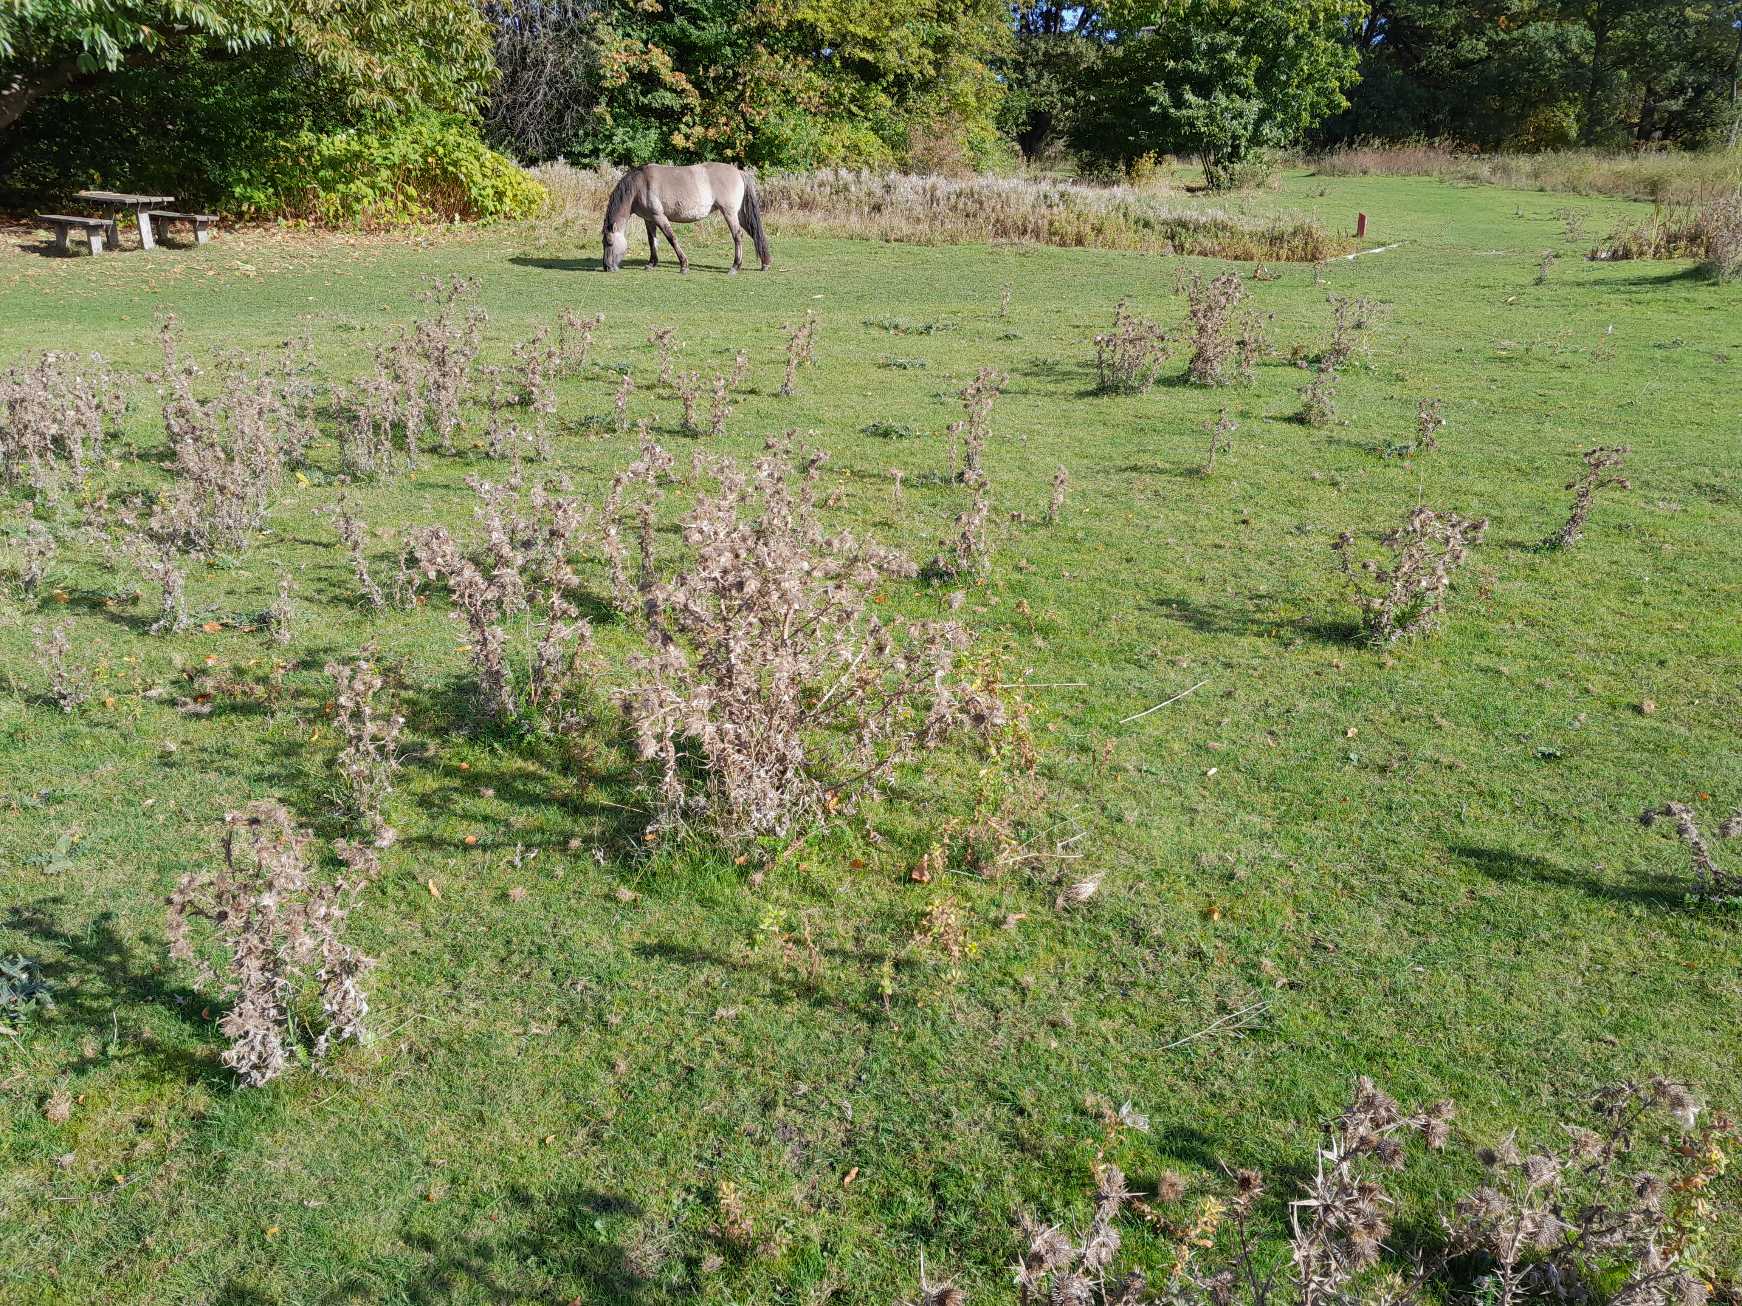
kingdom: Plantae
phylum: Tracheophyta
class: Magnoliopsida
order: Asterales
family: Asteraceae
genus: Cirsium
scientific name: Cirsium vulgare
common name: Horse-tidsel
